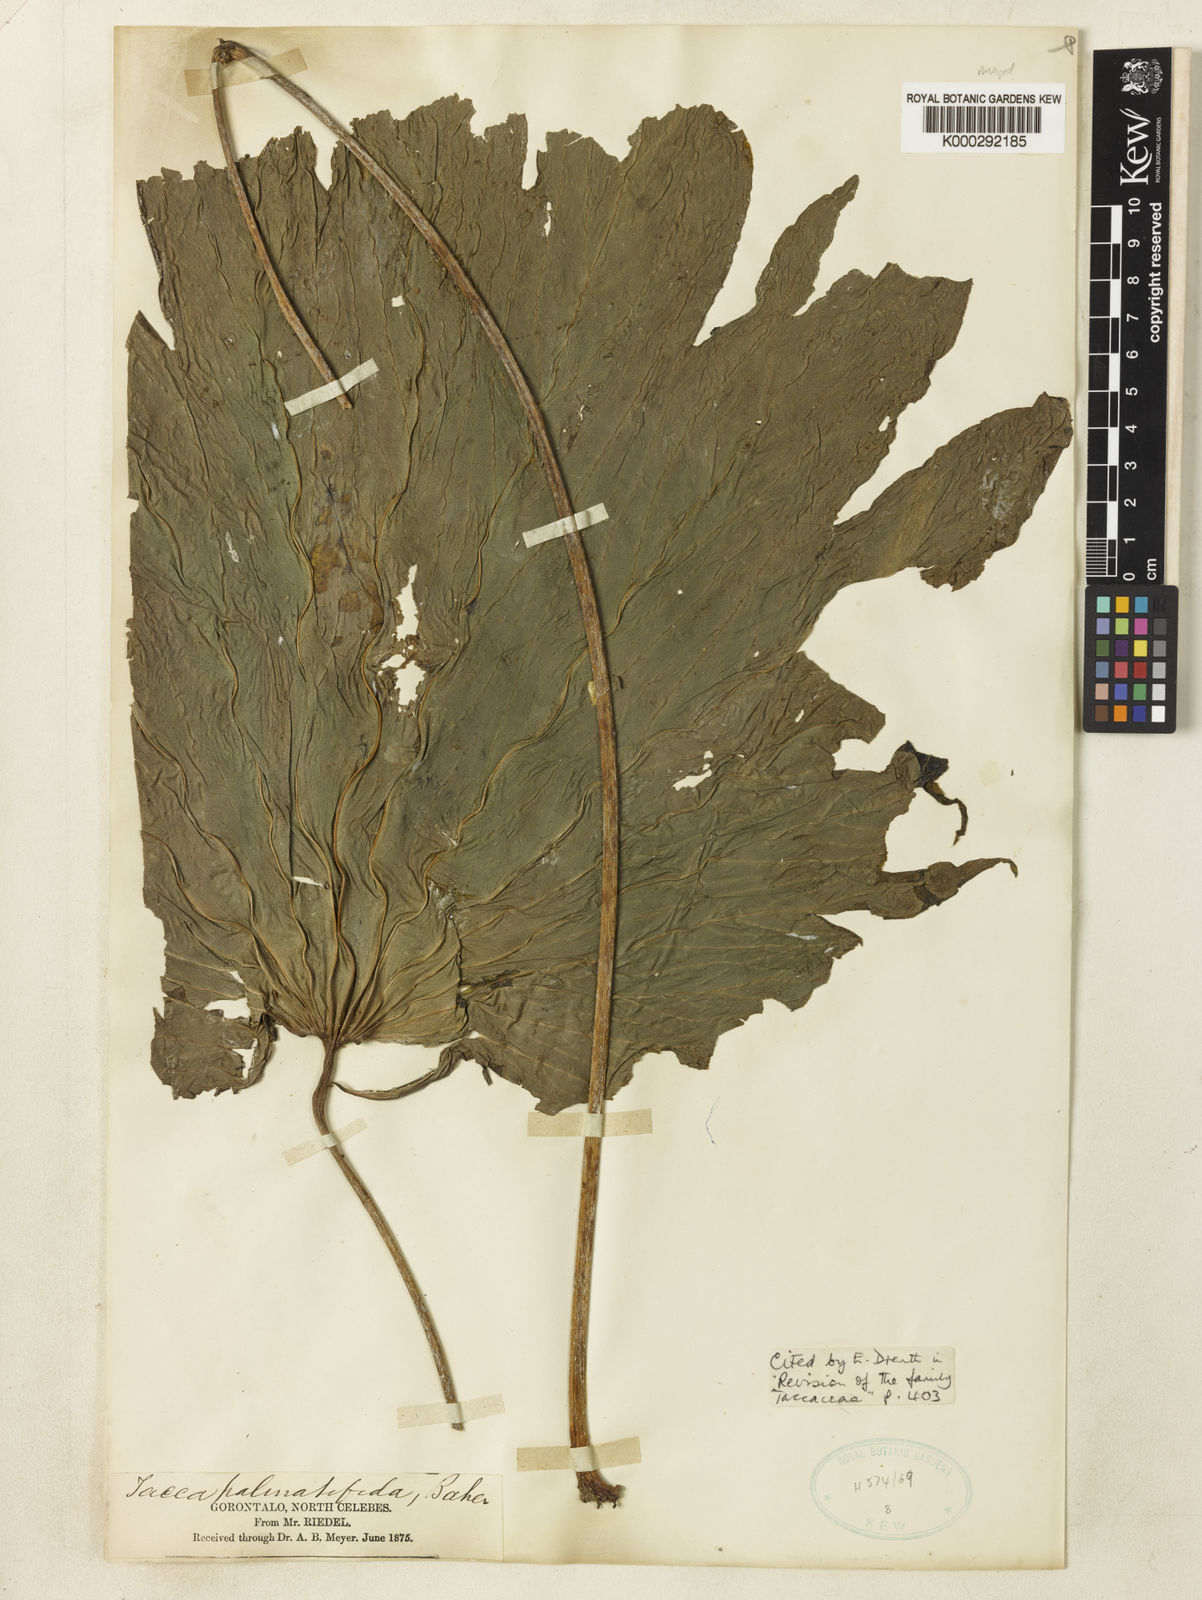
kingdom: Plantae
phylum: Tracheophyta
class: Liliopsida
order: Dioscoreales
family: Dioscoreaceae
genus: Tacca
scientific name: Tacca palmatifida
